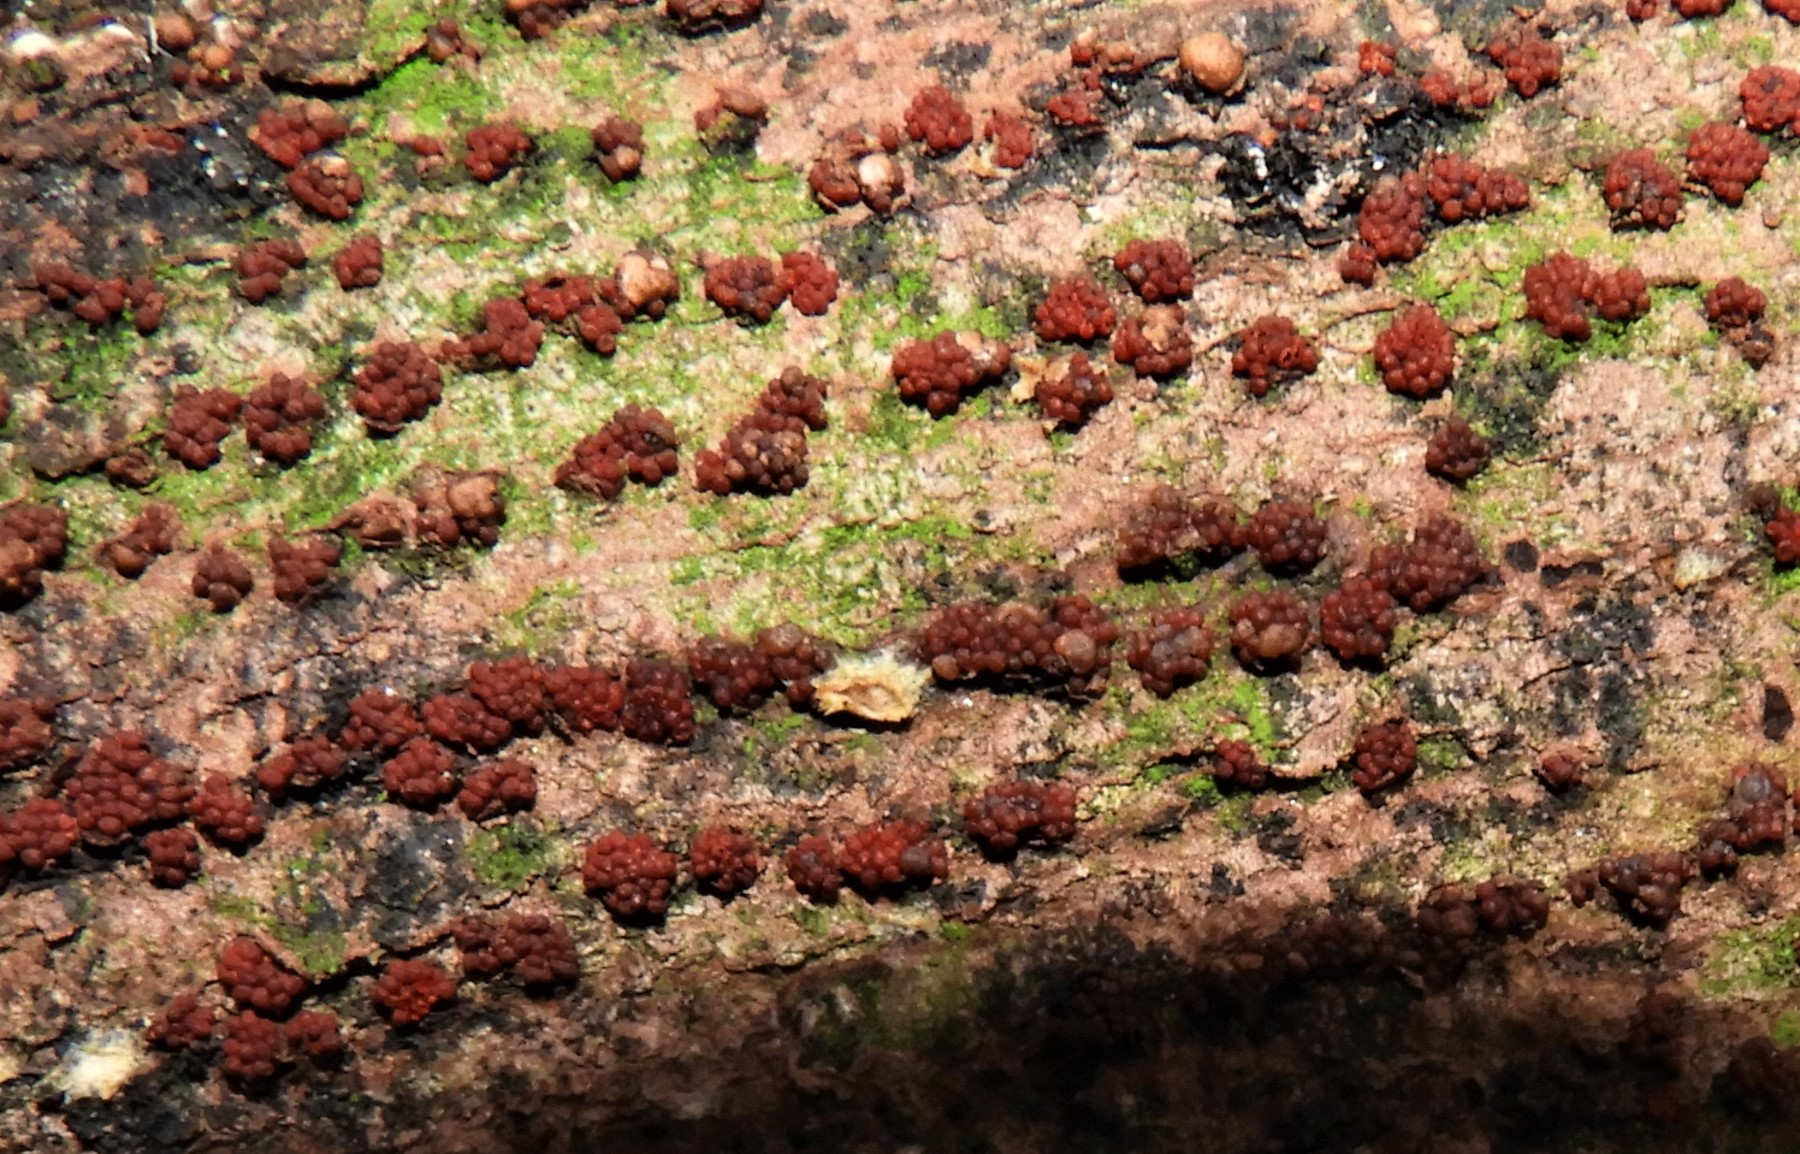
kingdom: Fungi
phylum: Ascomycota
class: Sordariomycetes
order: Hypocreales
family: Nectriaceae
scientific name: Nectriaceae
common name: cinnobersvampfamilien
